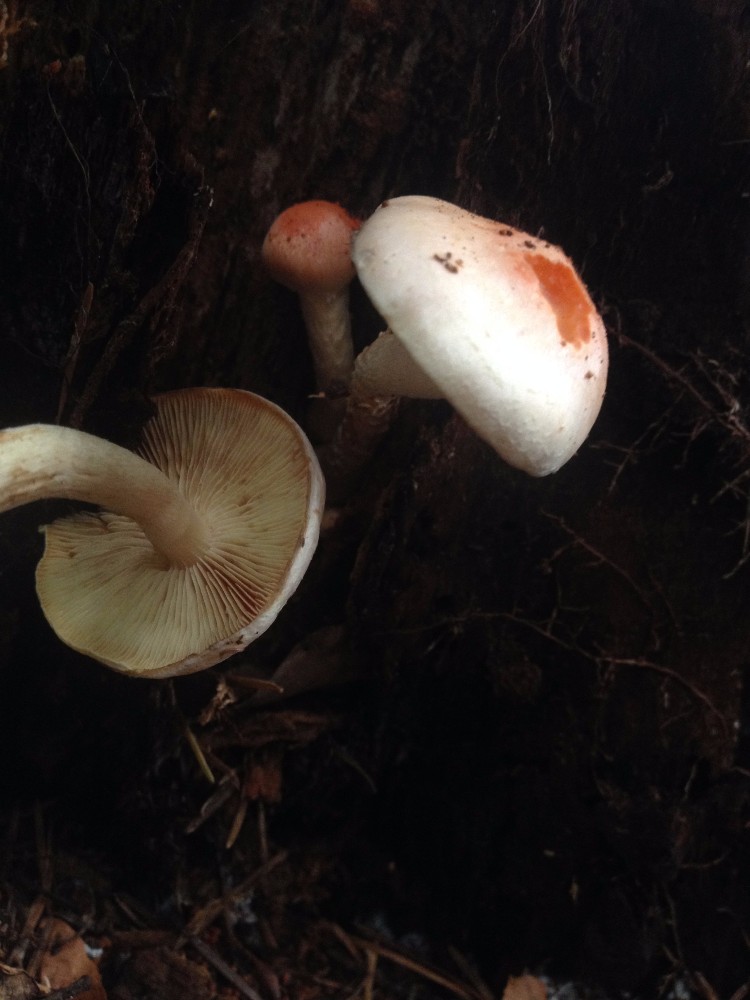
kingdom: Fungi
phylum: Basidiomycota
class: Agaricomycetes
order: Agaricales
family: Tricholomataceae
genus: Tricholomopsis
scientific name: Tricholomopsis rutilans
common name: purpur-væbnerhat
